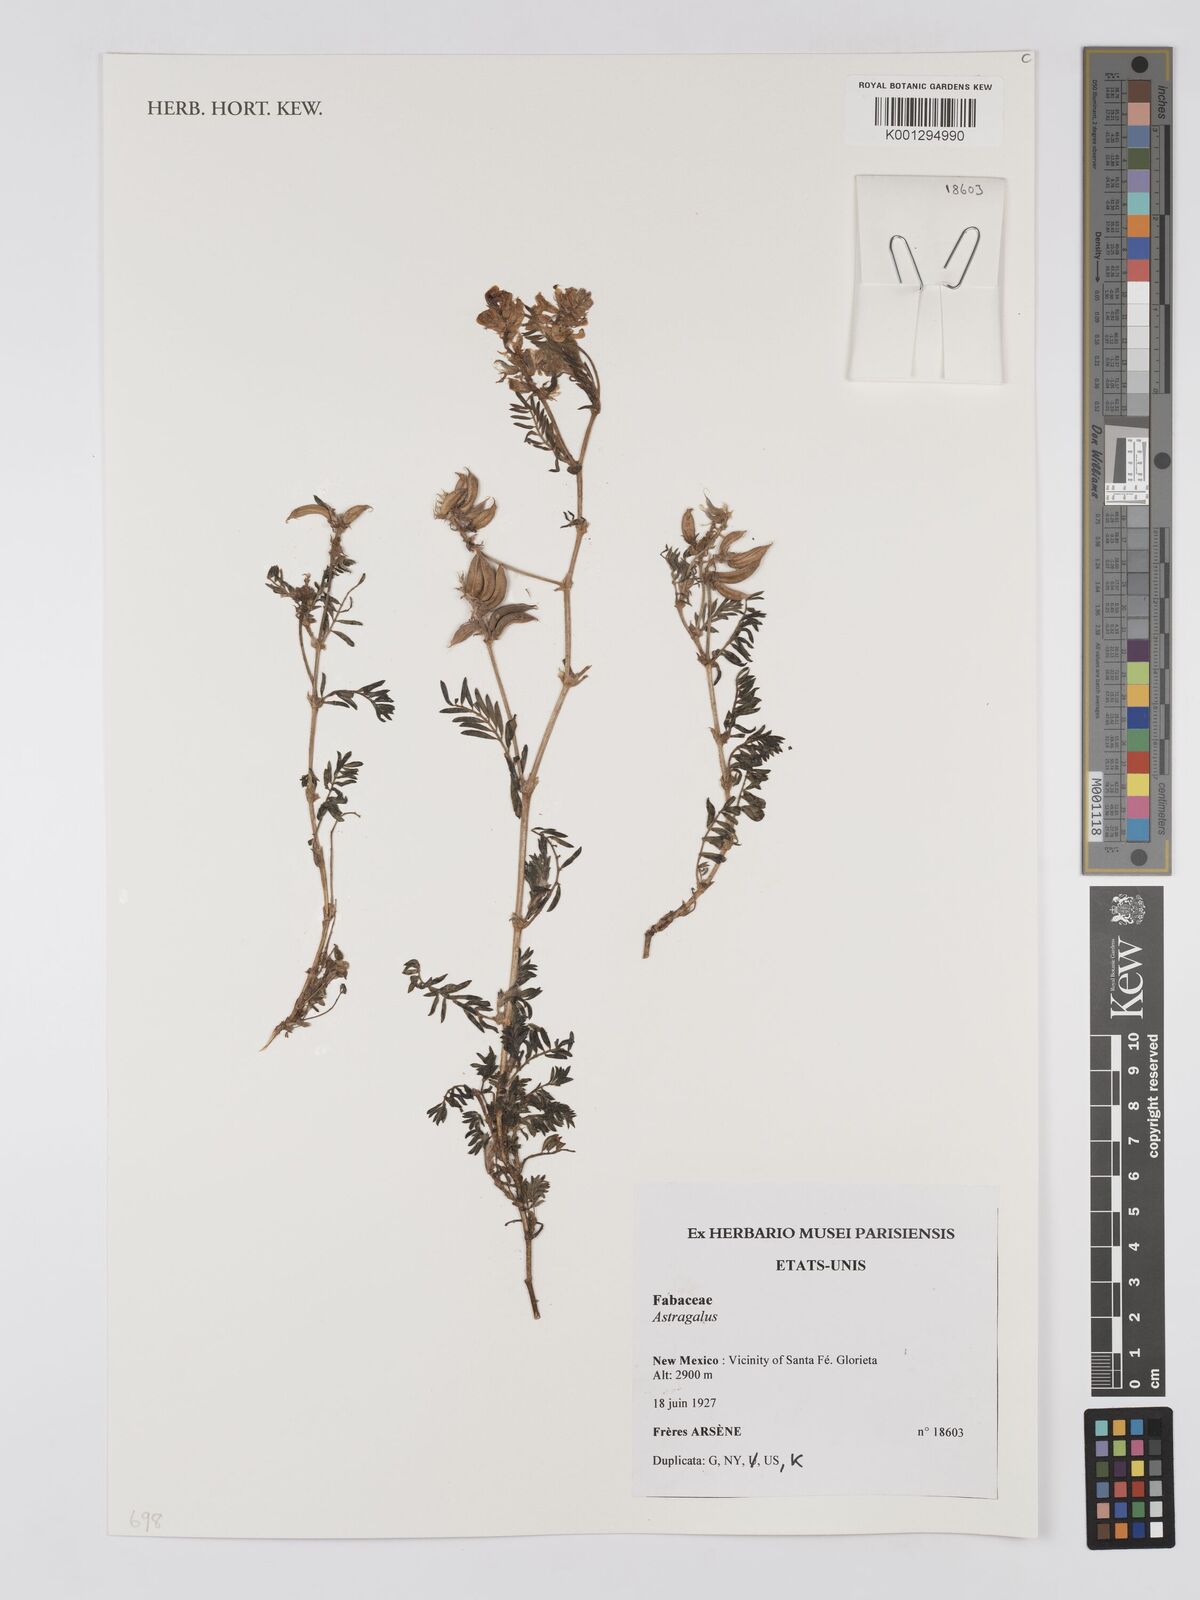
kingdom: Plantae
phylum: Tracheophyta
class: Magnoliopsida
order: Fabales
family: Fabaceae
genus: Astragalus
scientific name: Astragalus
